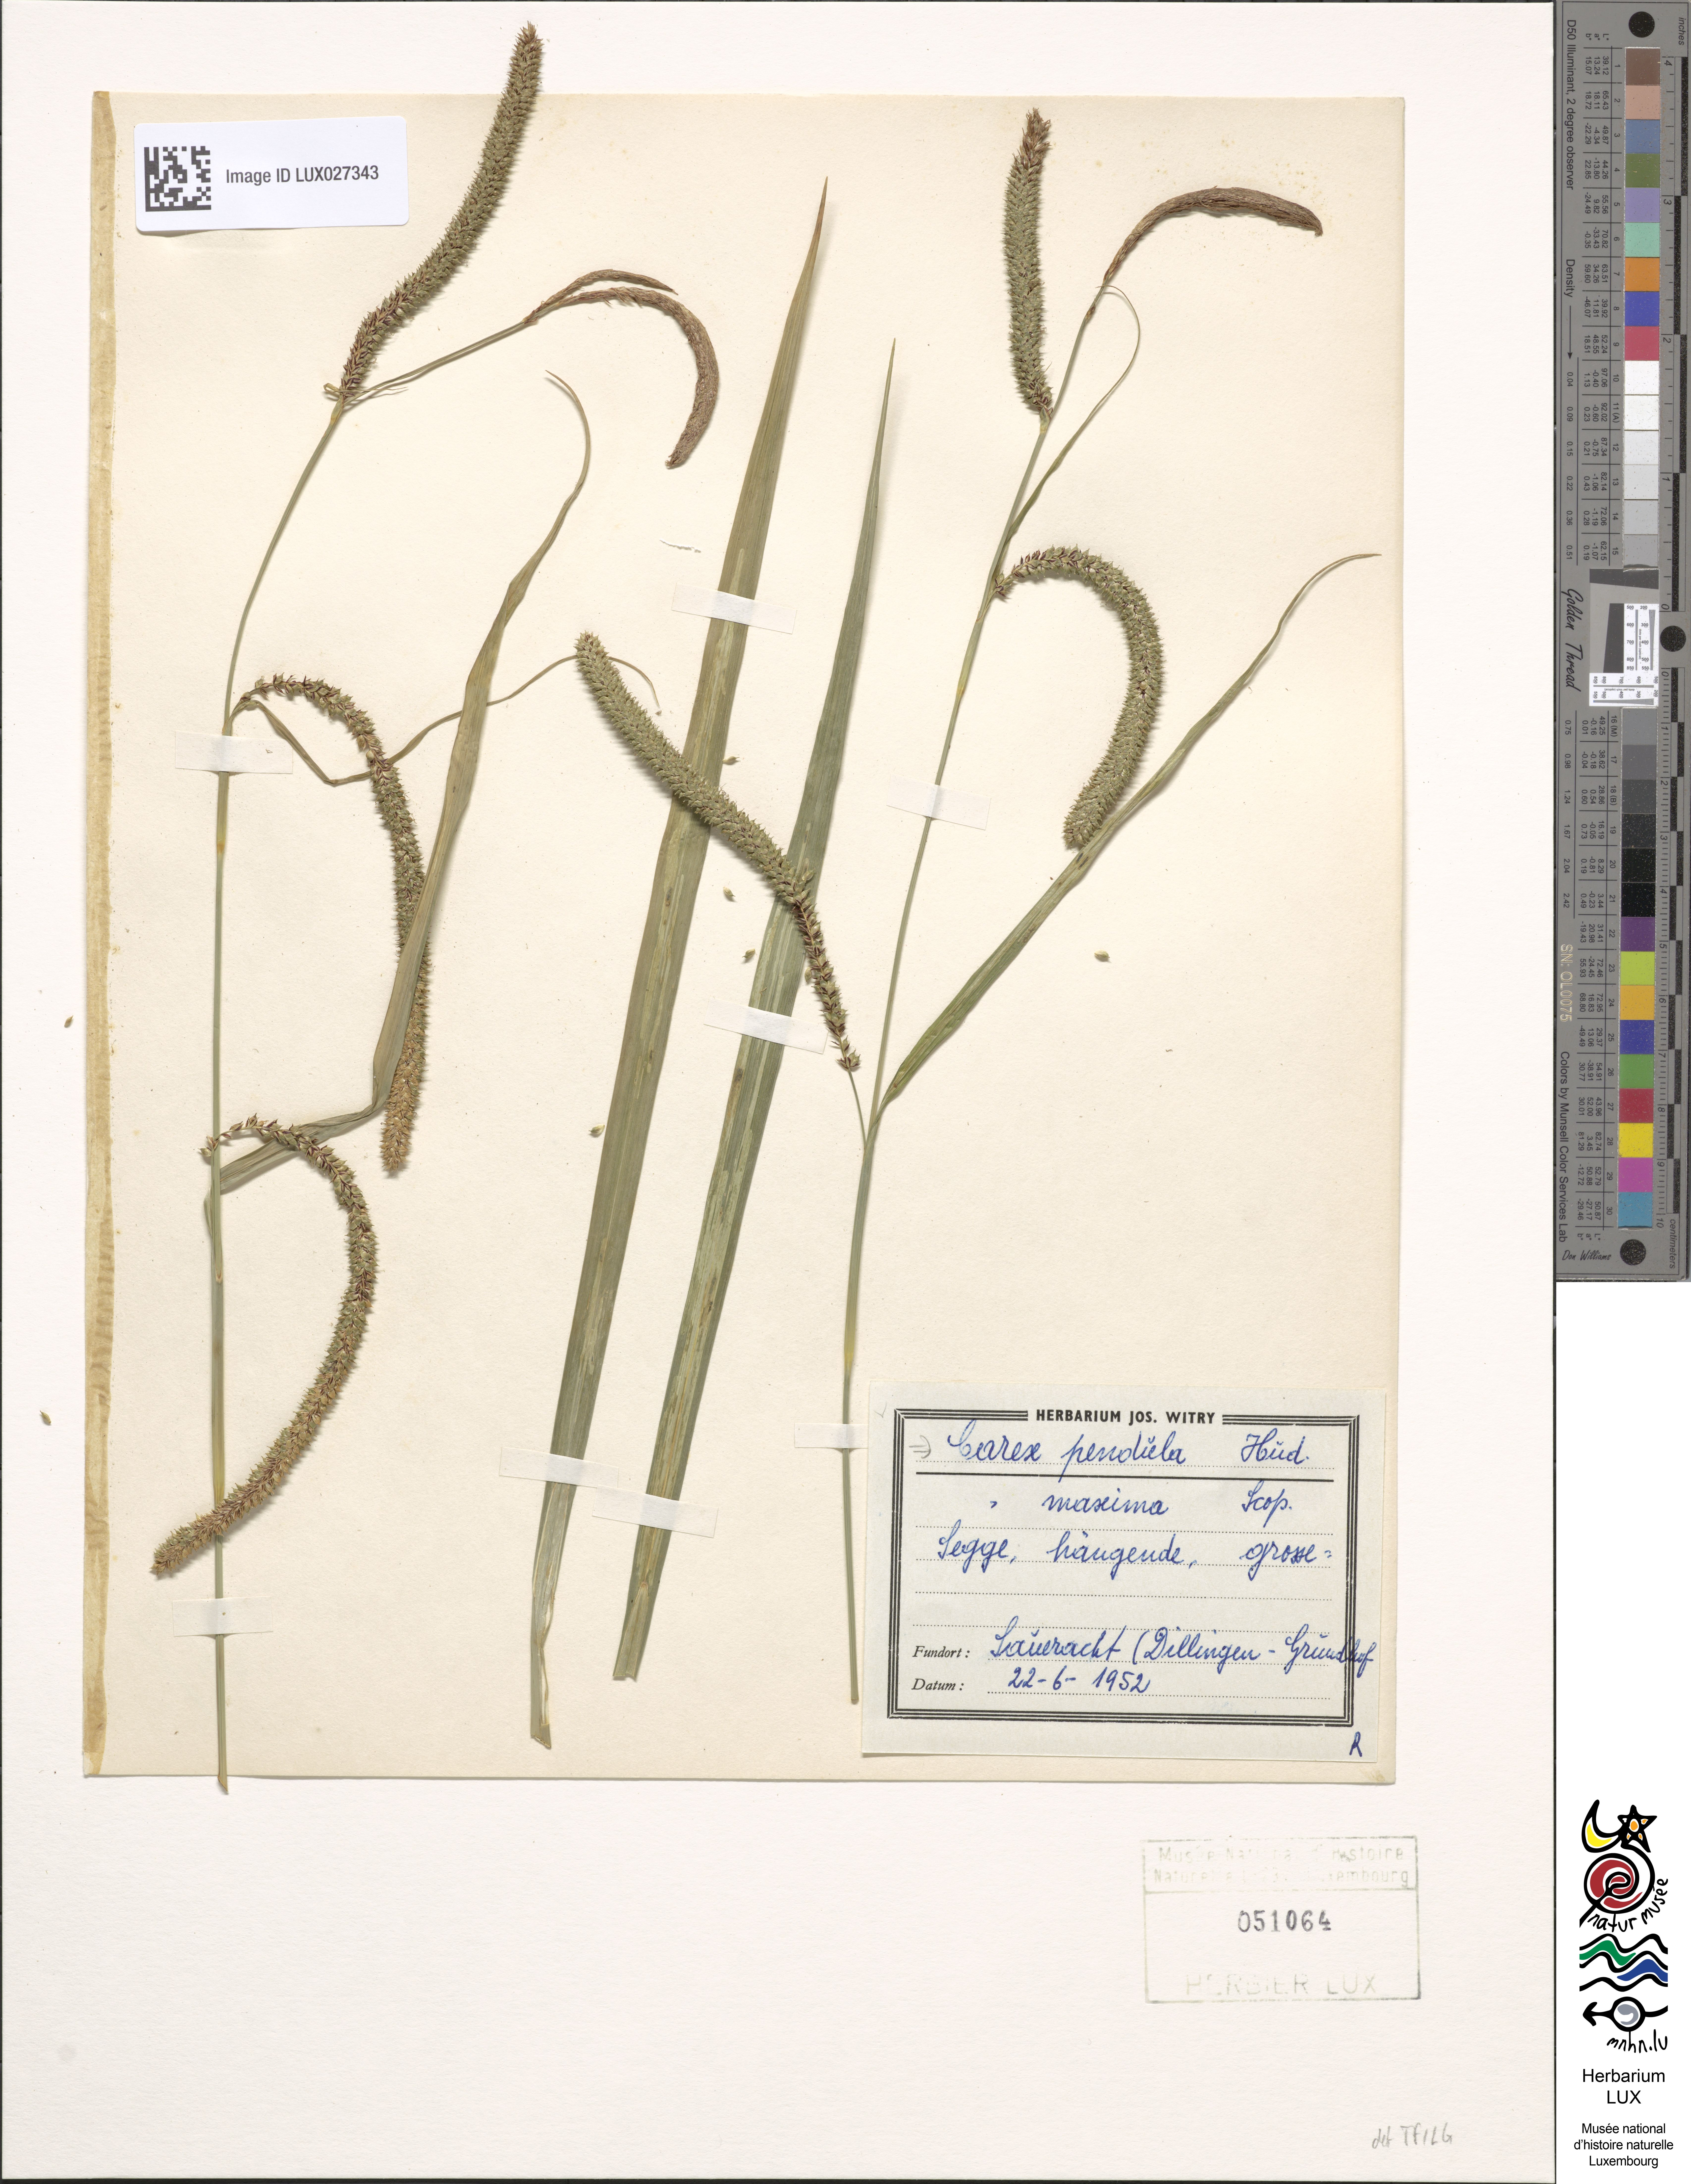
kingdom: Plantae
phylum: Tracheophyta
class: Liliopsida
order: Poales
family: Cyperaceae
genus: Carex
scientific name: Carex pendula
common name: Pendulous sedge
